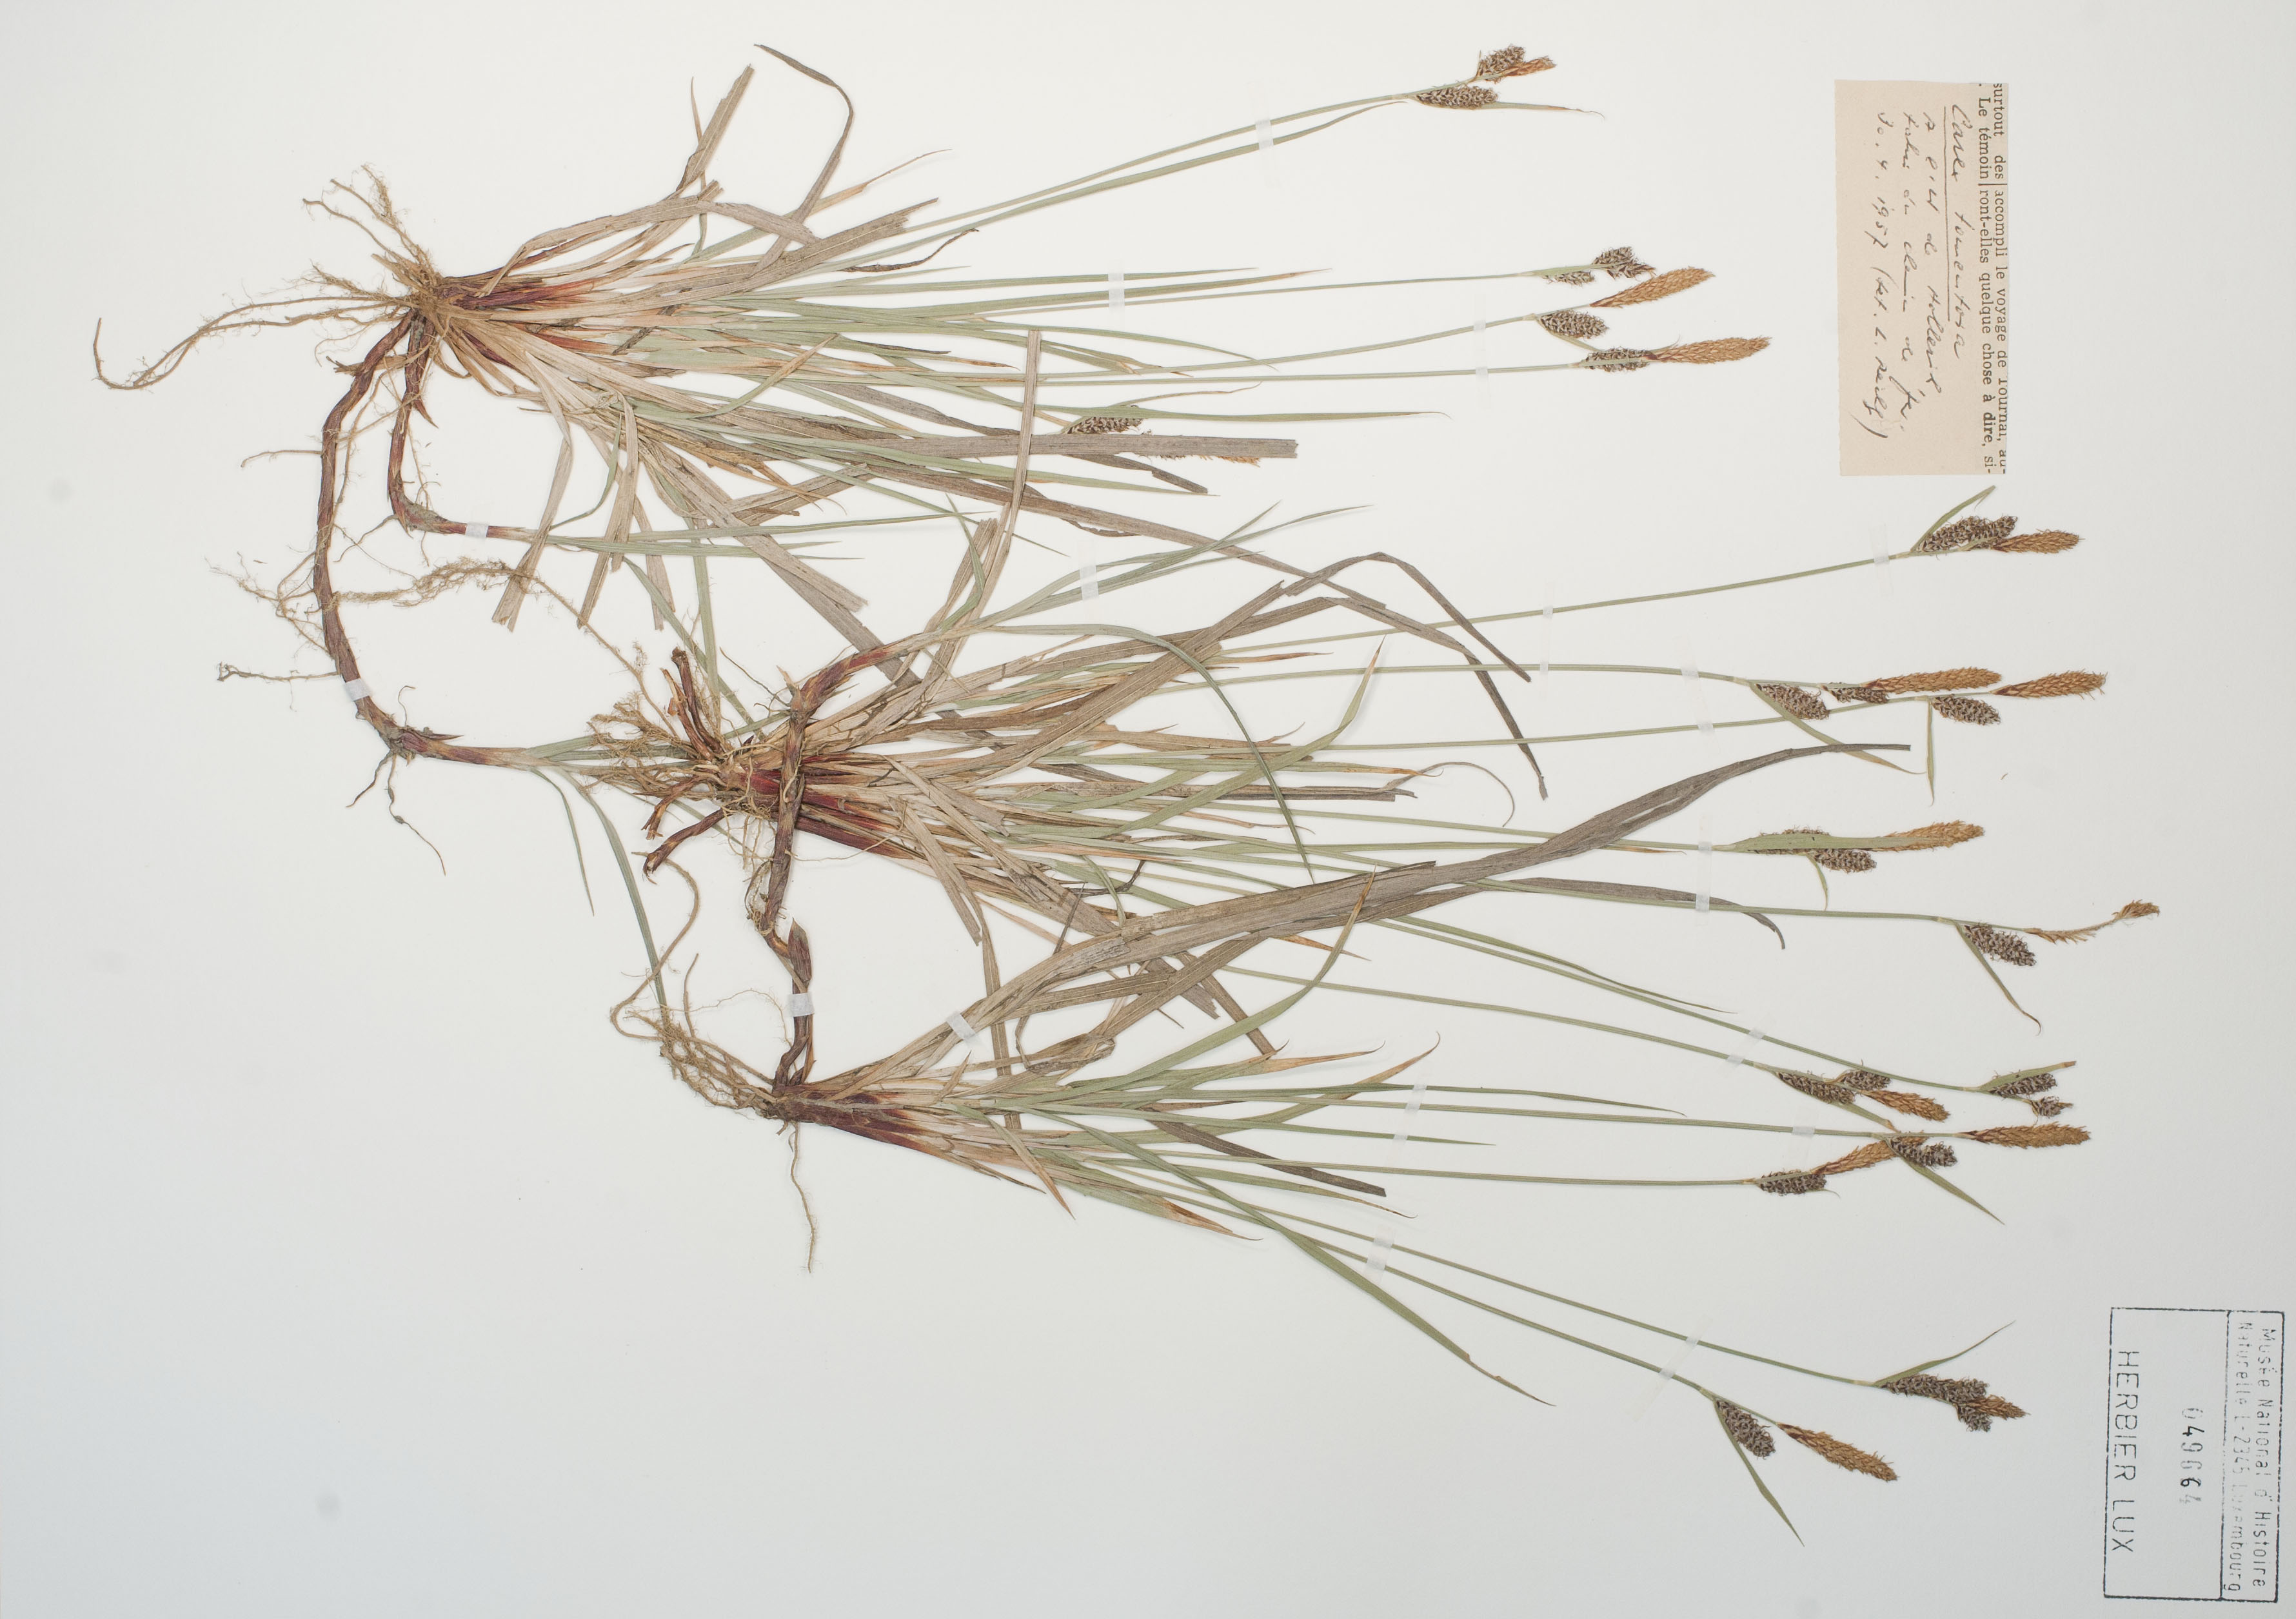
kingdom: Plantae
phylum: Tracheophyta
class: Liliopsida
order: Poales
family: Cyperaceae
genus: Carex
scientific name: Carex tomentosa
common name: Downy-fruited sedge
